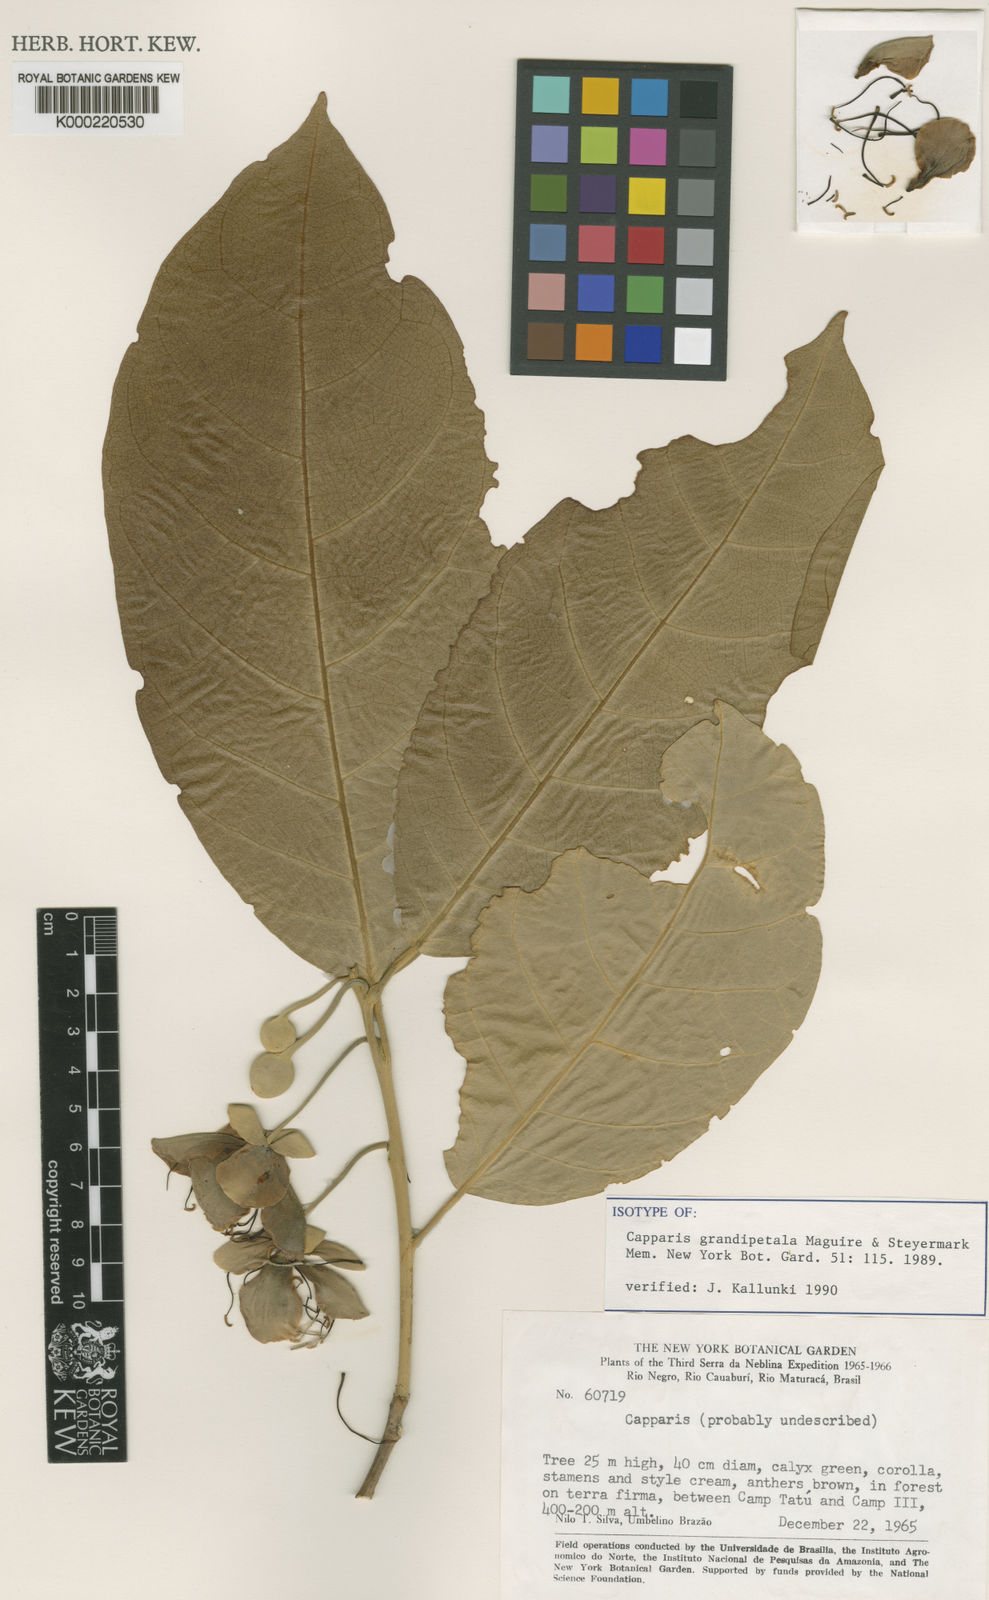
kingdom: Plantae
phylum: Tracheophyta
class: Magnoliopsida
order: Brassicales
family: Capparaceae
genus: Neocalyptrocalyx
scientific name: Neocalyptrocalyx grandipetala
